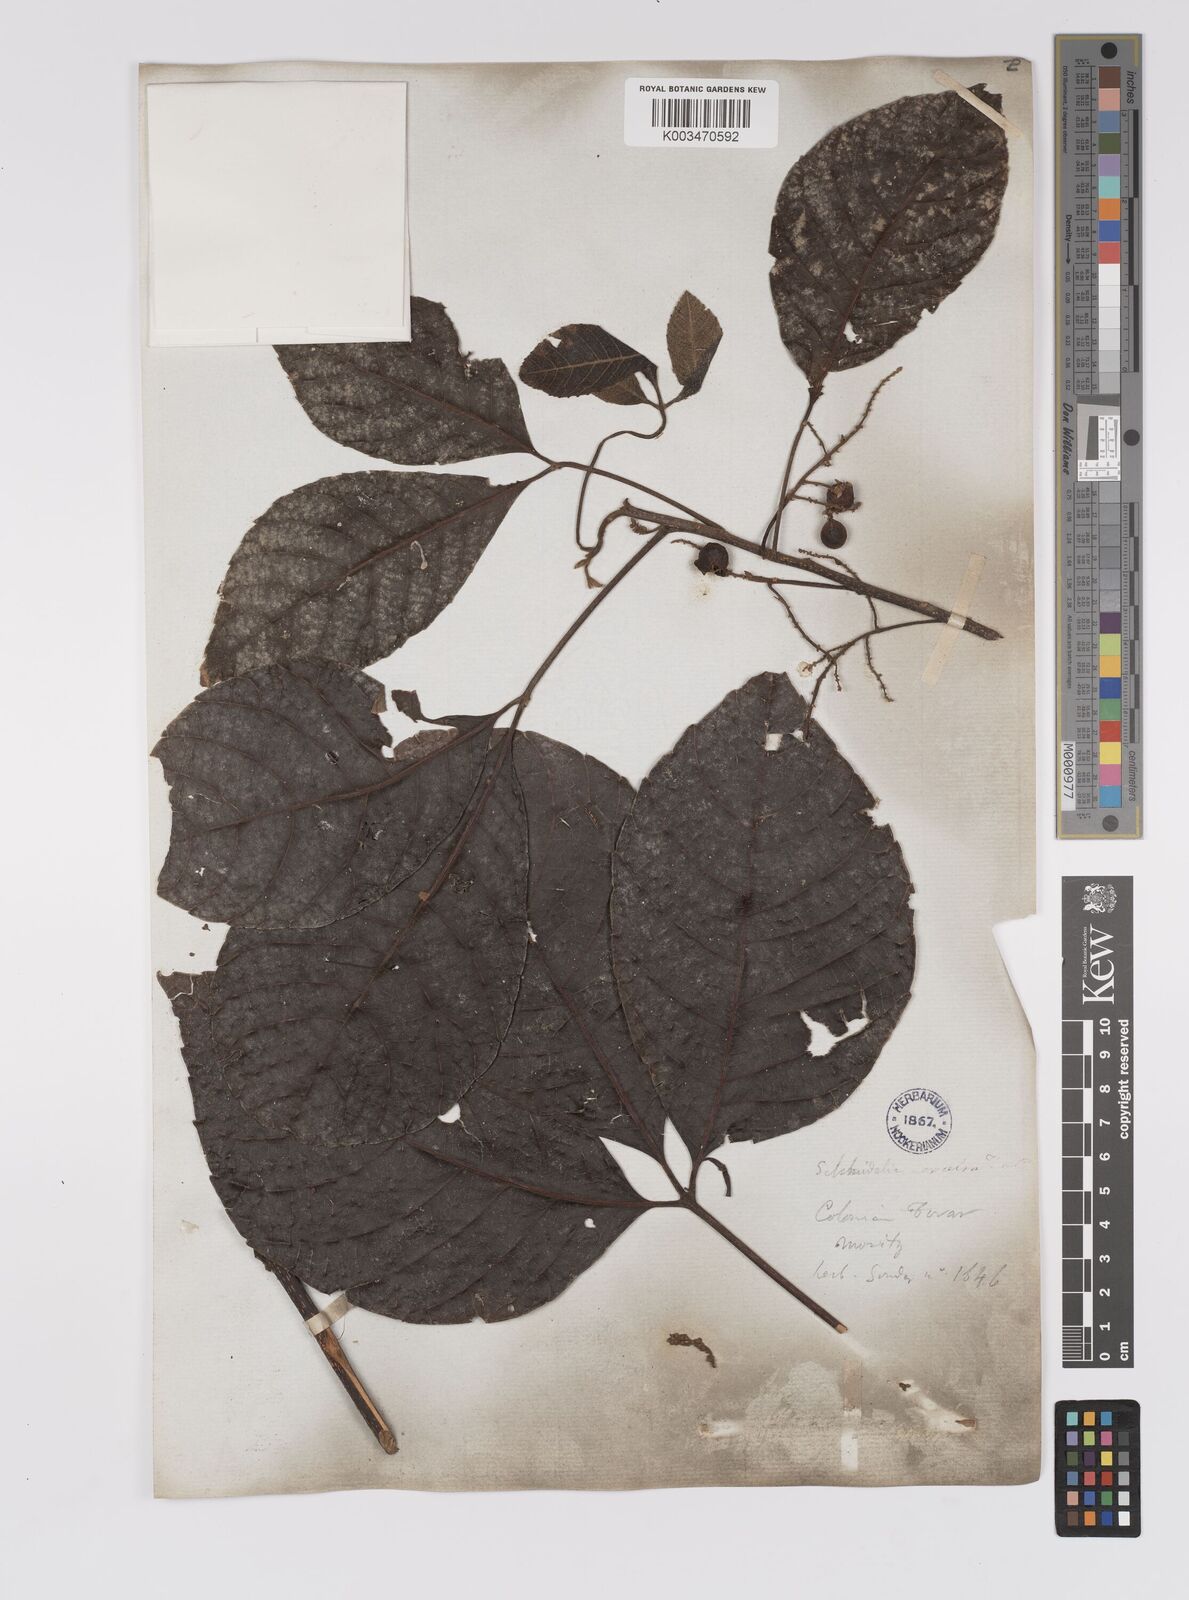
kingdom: Plantae
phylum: Tracheophyta
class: Magnoliopsida
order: Sapindales
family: Sapindaceae
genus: Allophylus
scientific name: Allophylus excelsus
